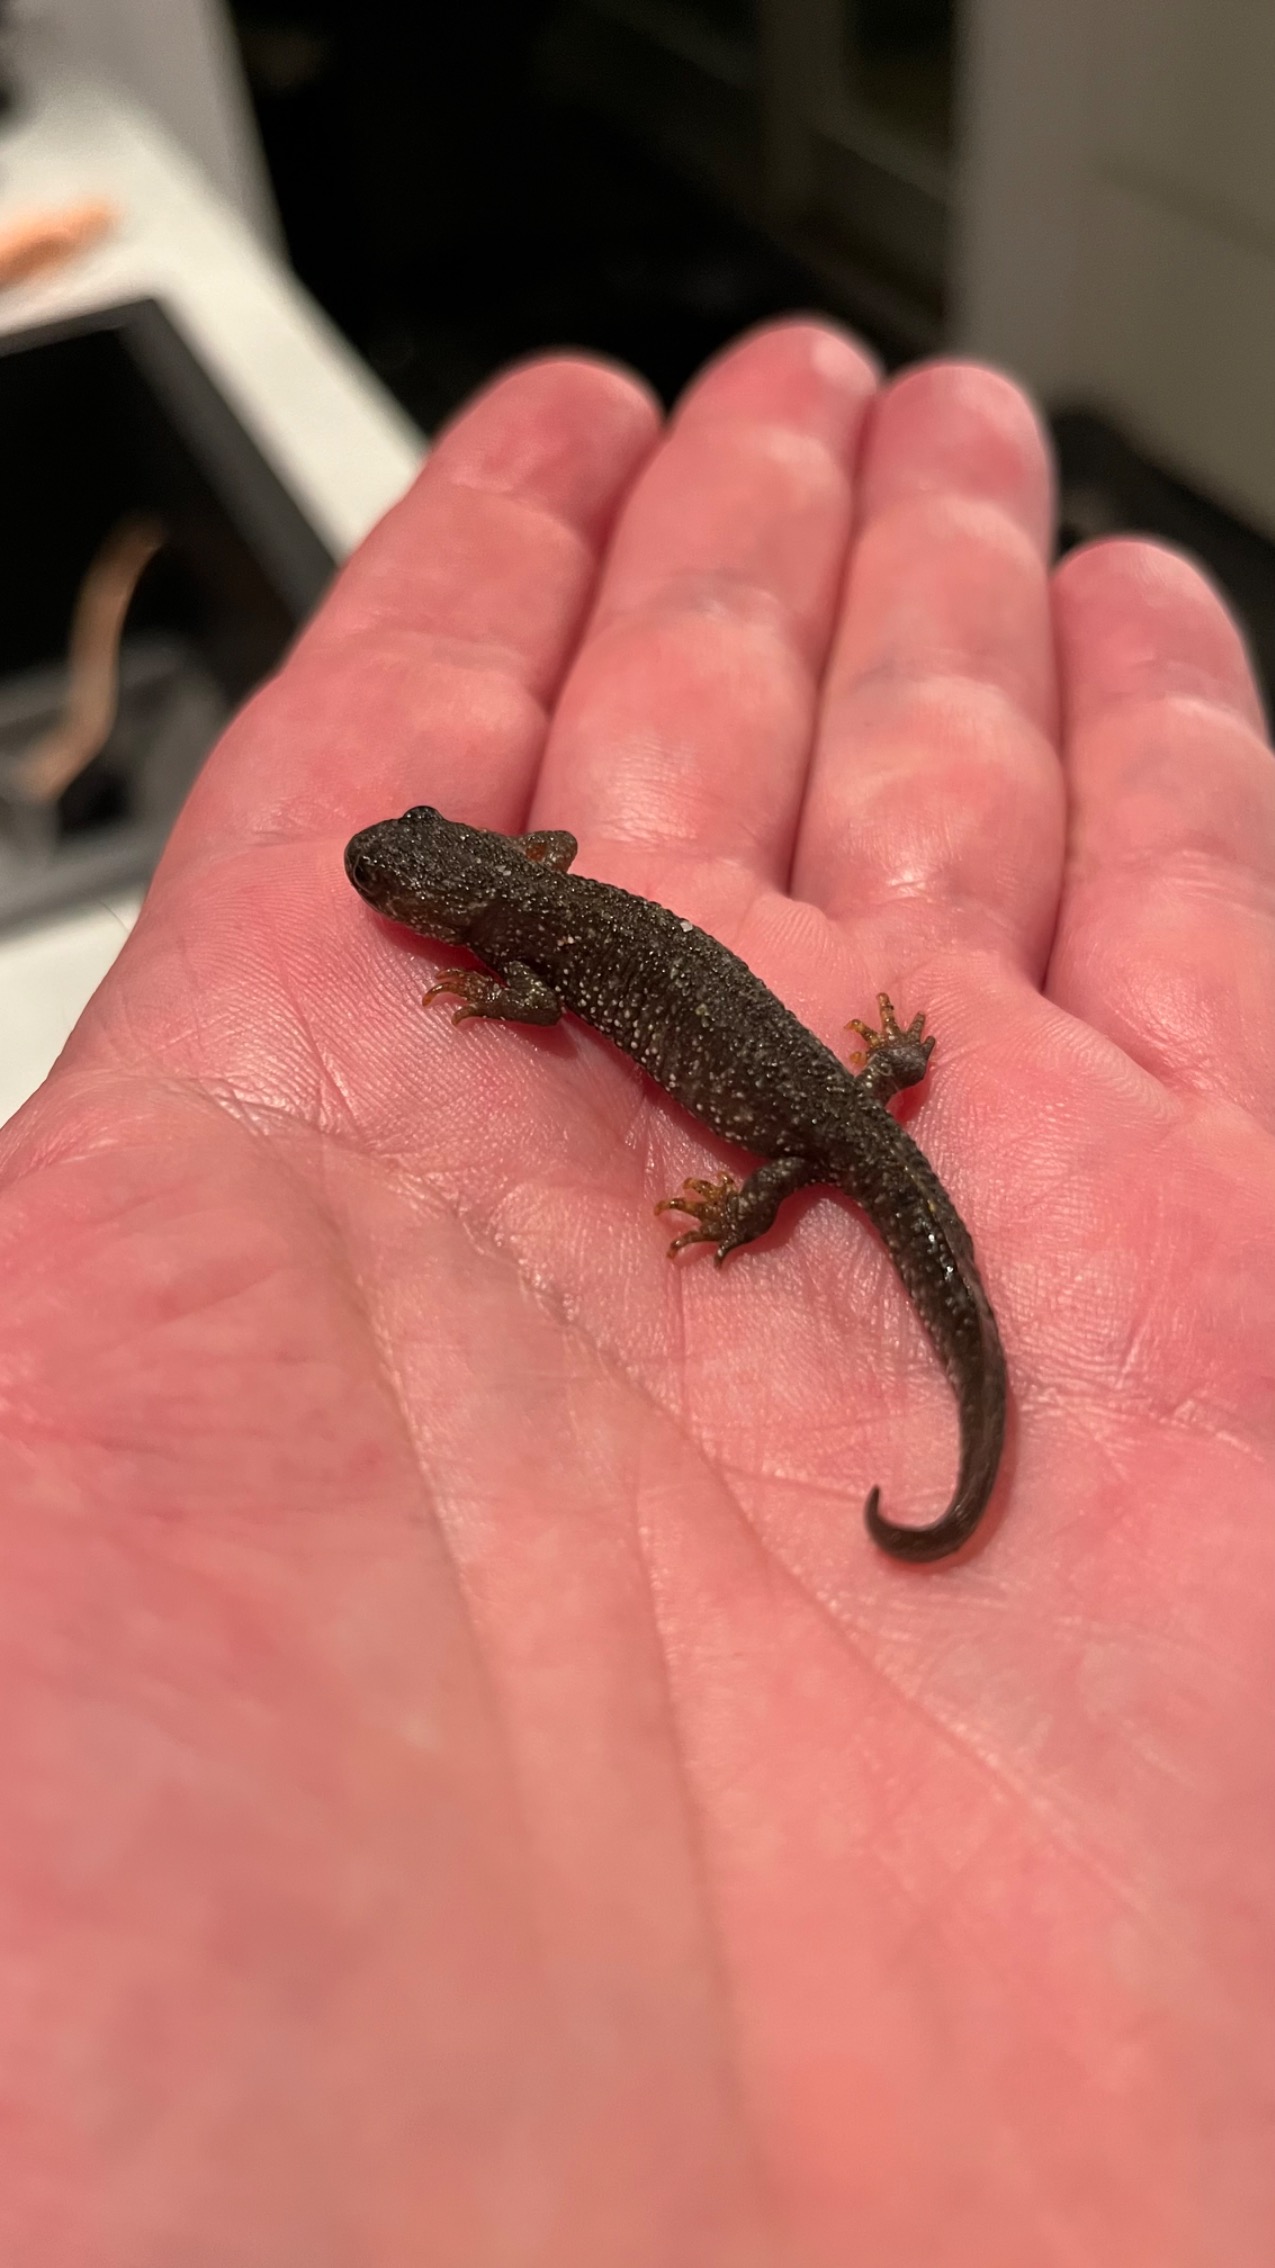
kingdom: Animalia
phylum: Chordata
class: Amphibia
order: Caudata
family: Salamandridae
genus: Triturus
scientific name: Triturus cristatus
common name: Stor vandsalamander
